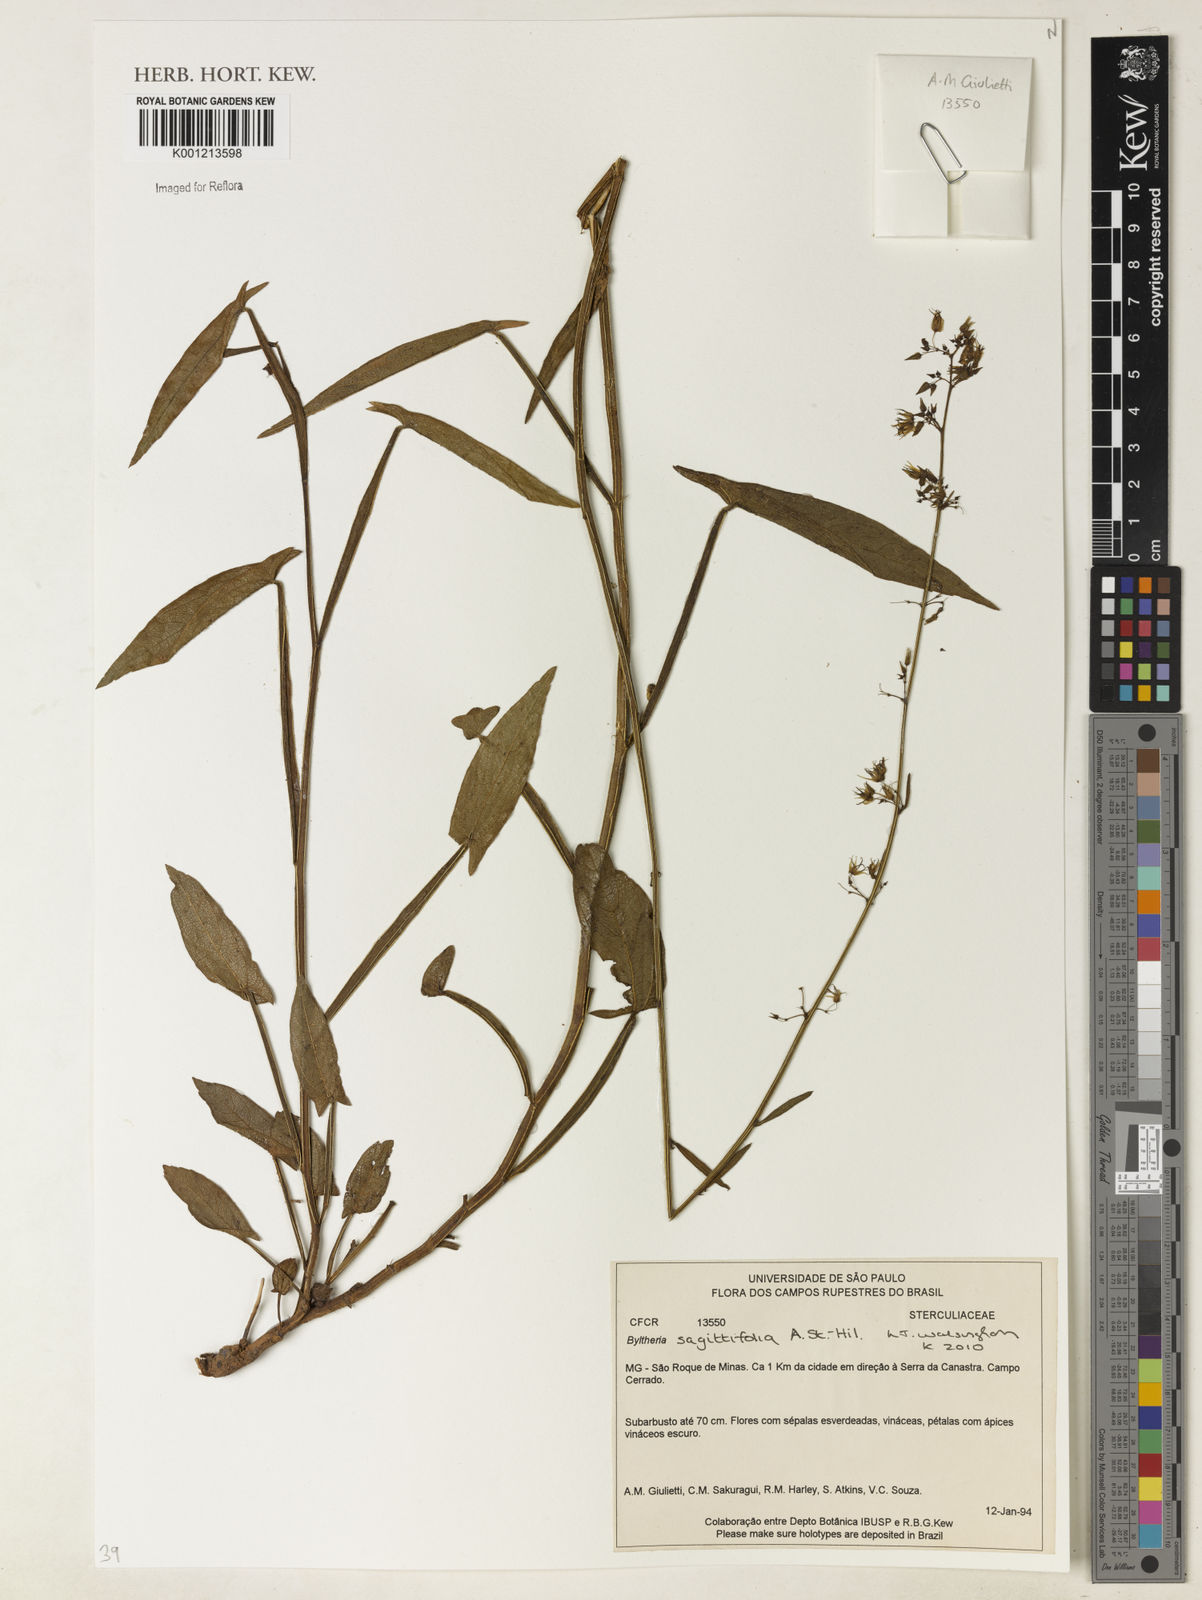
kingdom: Plantae
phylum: Tracheophyta
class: Magnoliopsida
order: Malvales
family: Malvaceae
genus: Byttneria
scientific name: Byttneria sagittifolia
